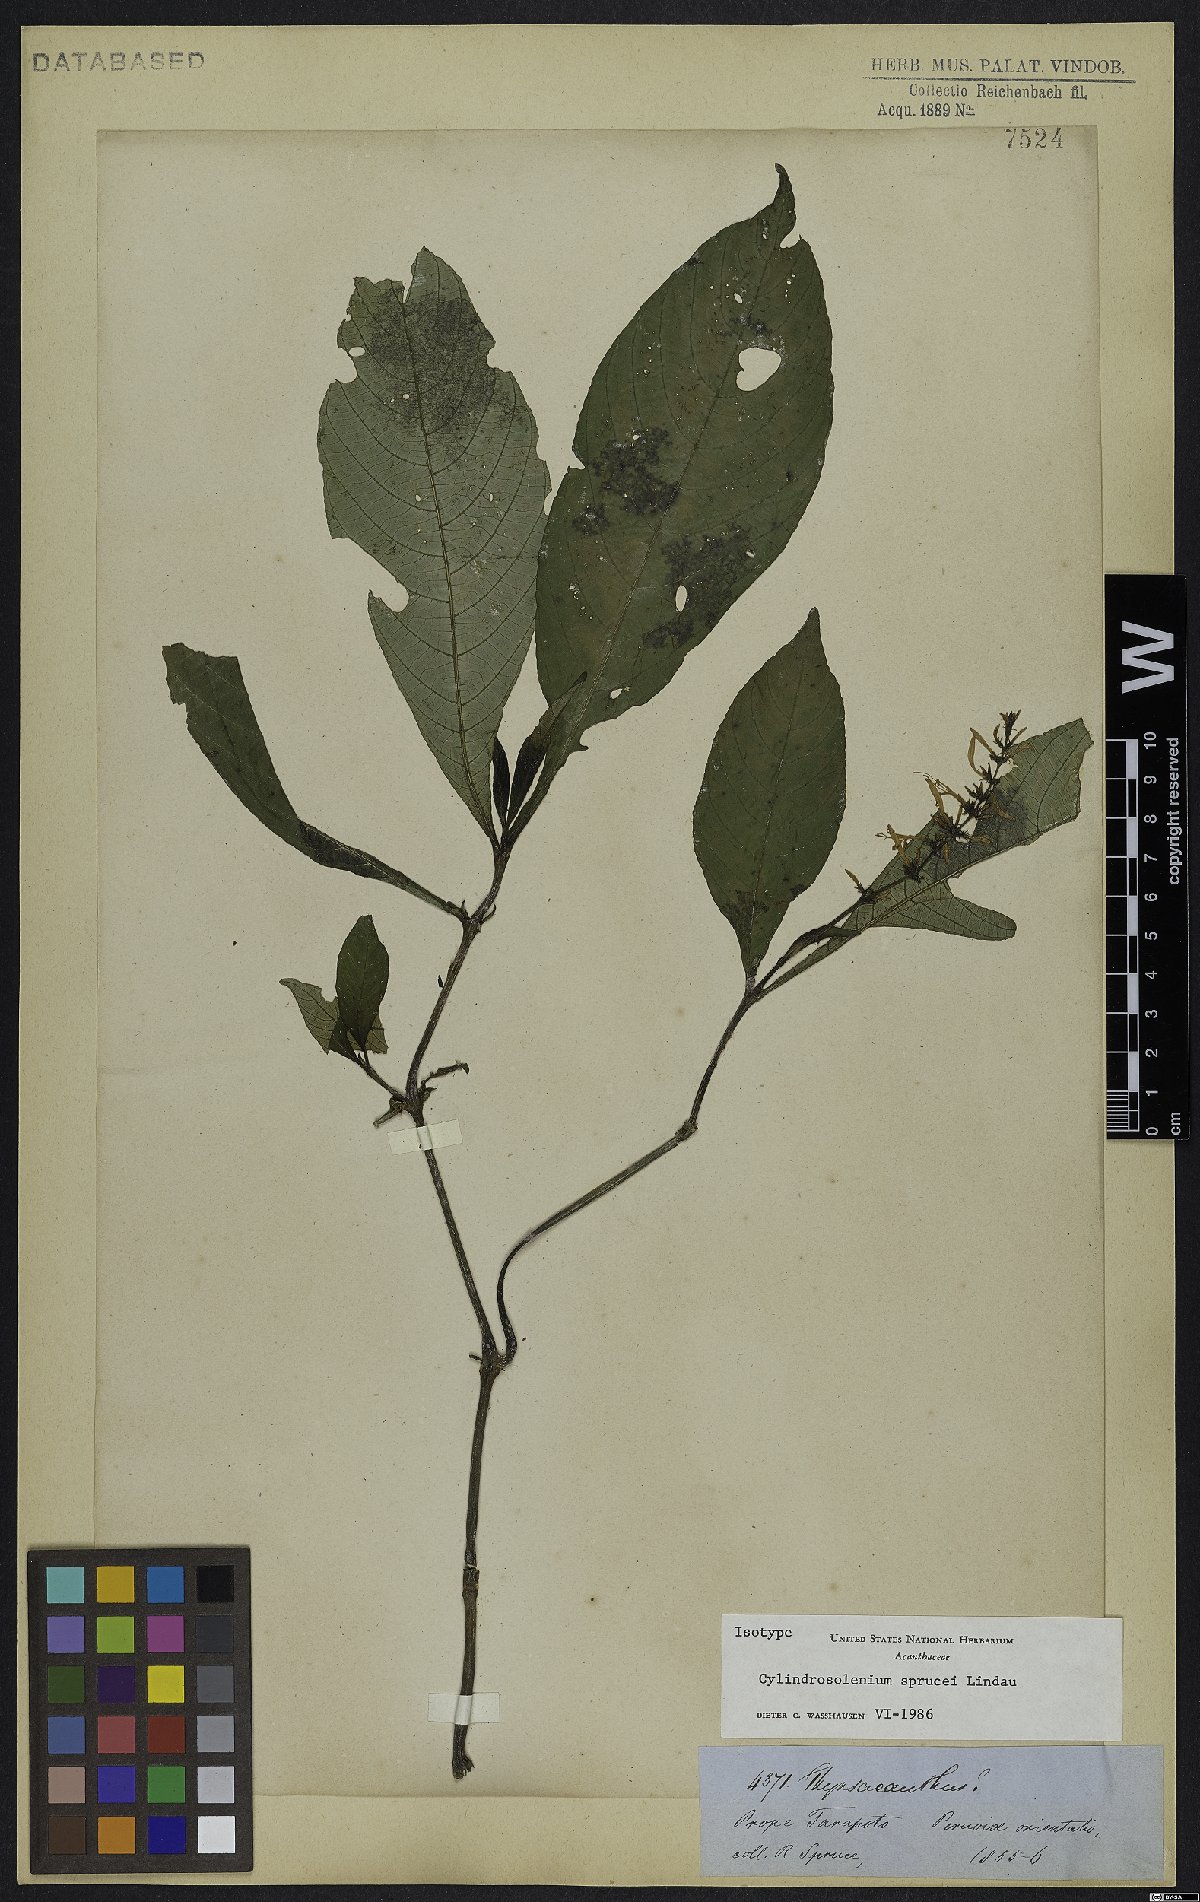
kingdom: Plantae
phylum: Tracheophyta
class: Magnoliopsida
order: Lamiales
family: Acanthaceae
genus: Stenostephanus
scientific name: Stenostephanus sprucei
